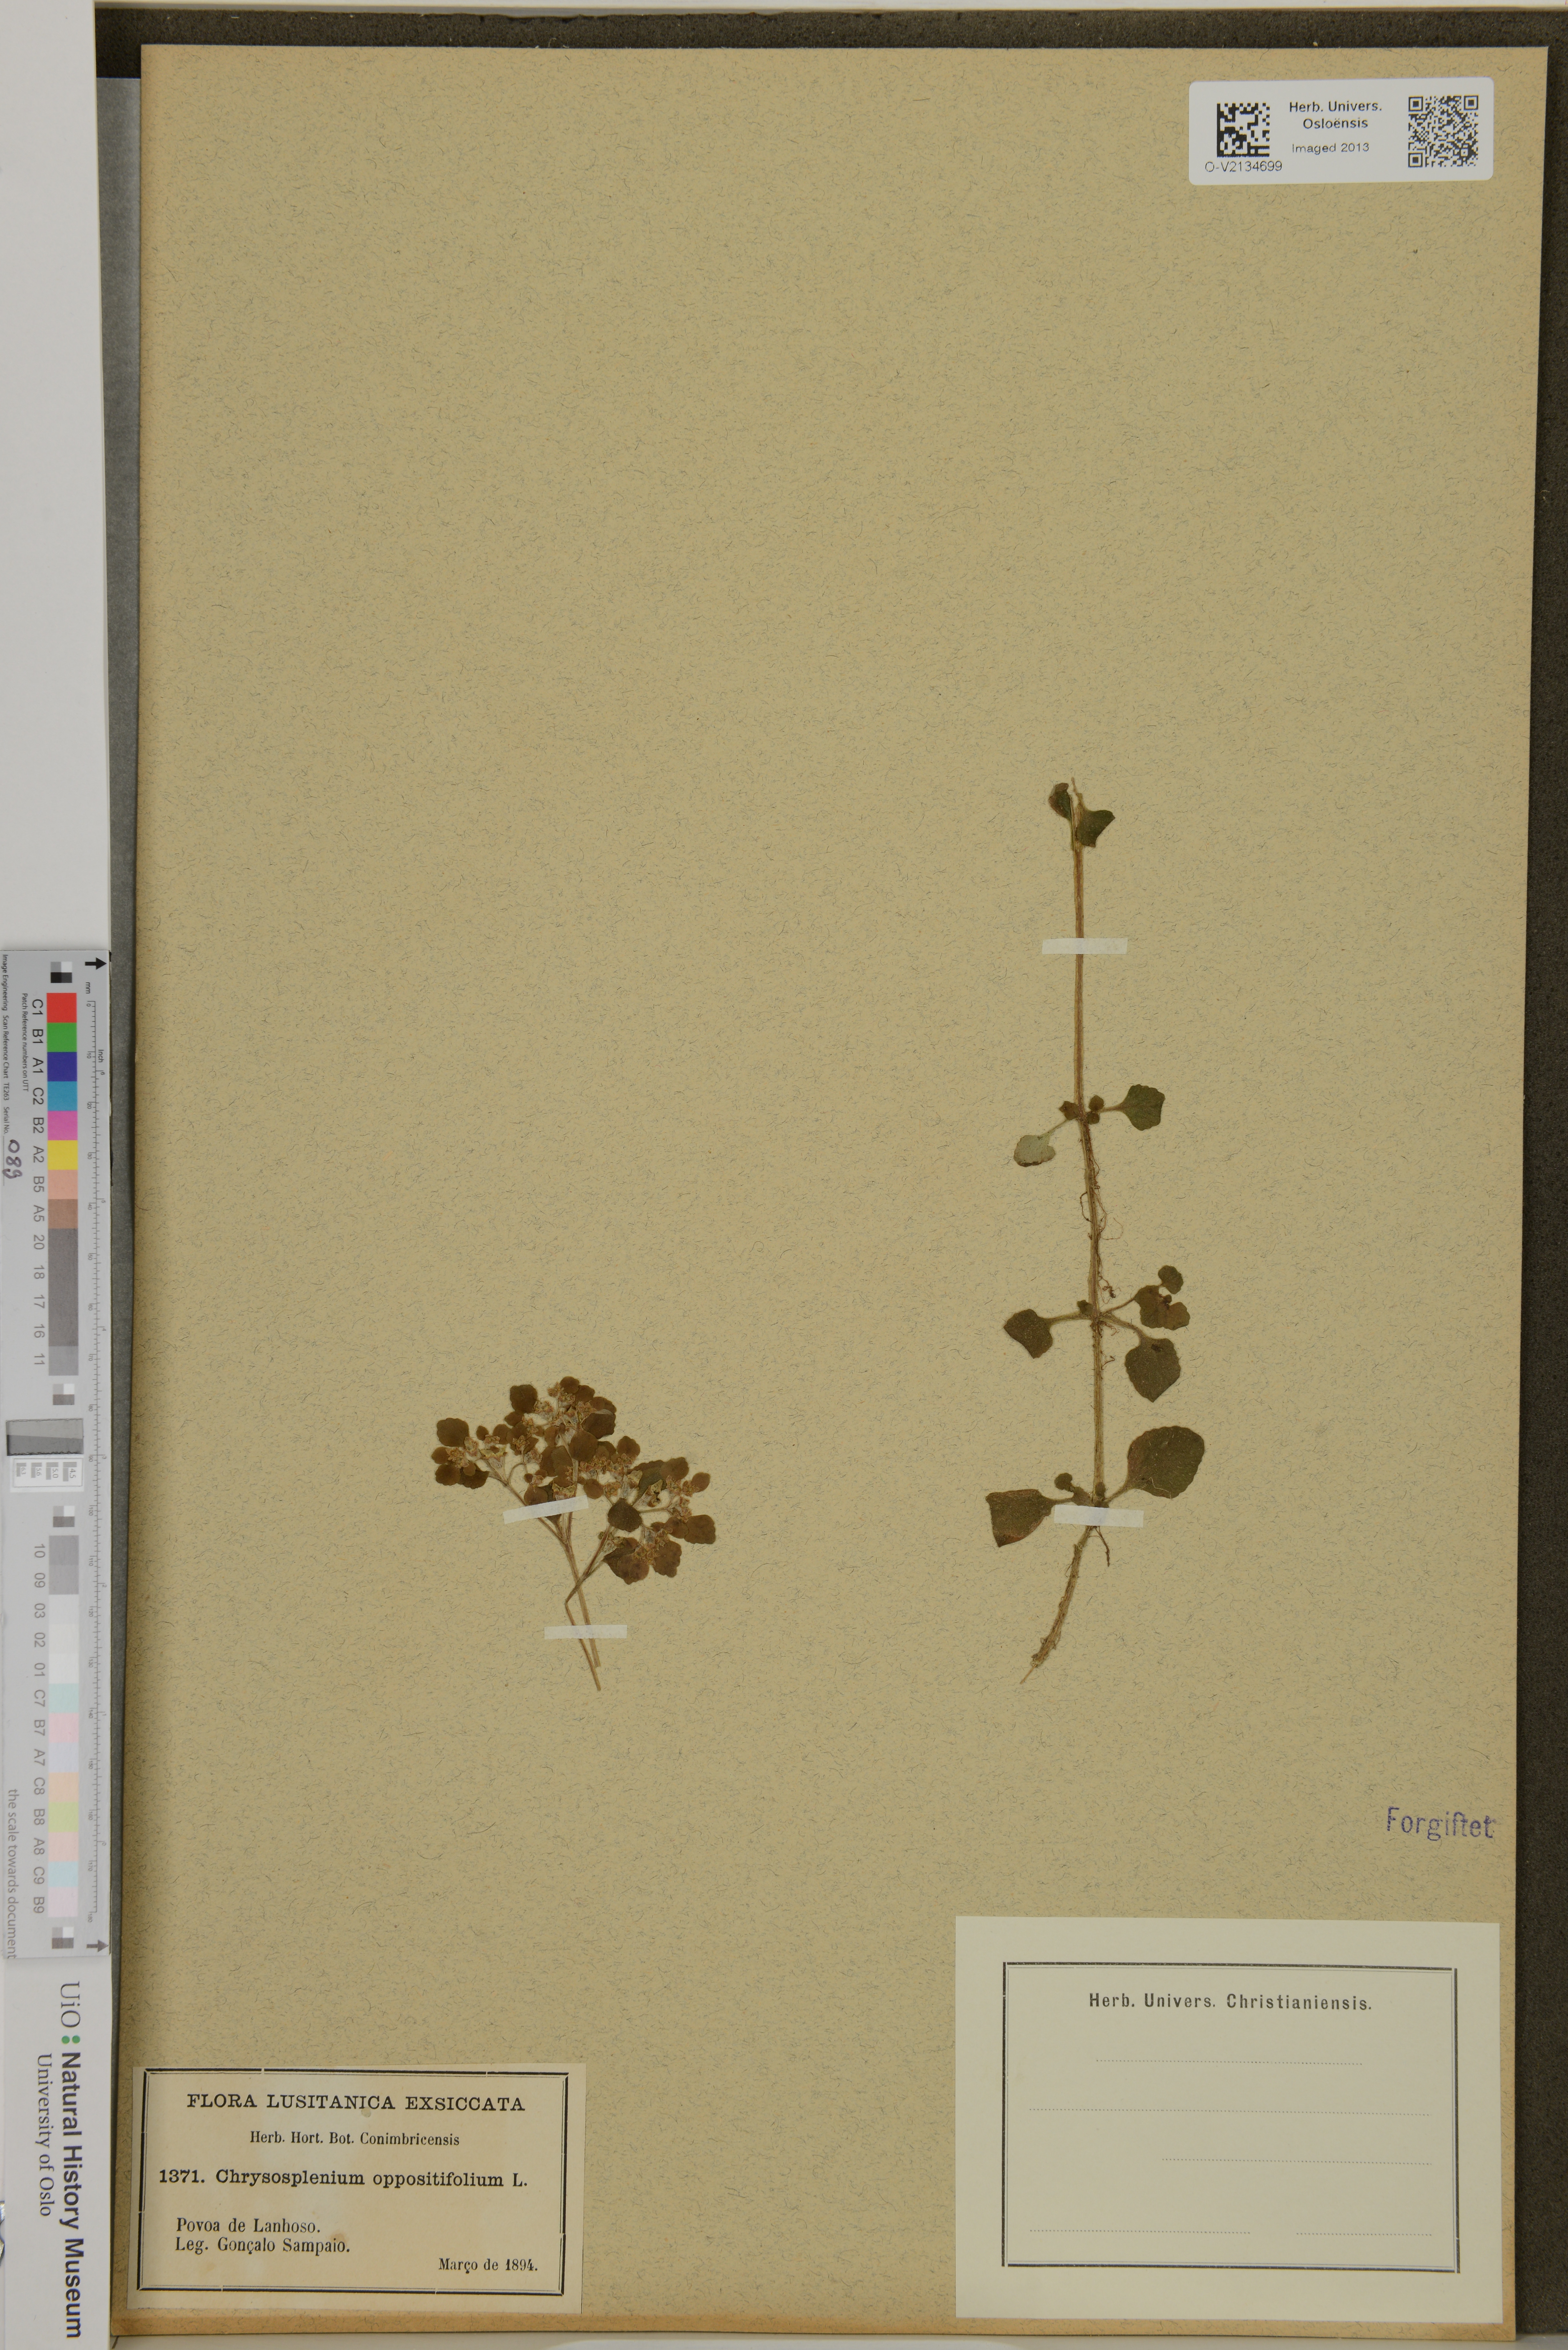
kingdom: Plantae
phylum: Tracheophyta
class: Magnoliopsida
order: Saxifragales
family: Saxifragaceae
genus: Chrysosplenium
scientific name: Chrysosplenium oppositifolium
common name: Opposite-leaved golden-saxifrage
